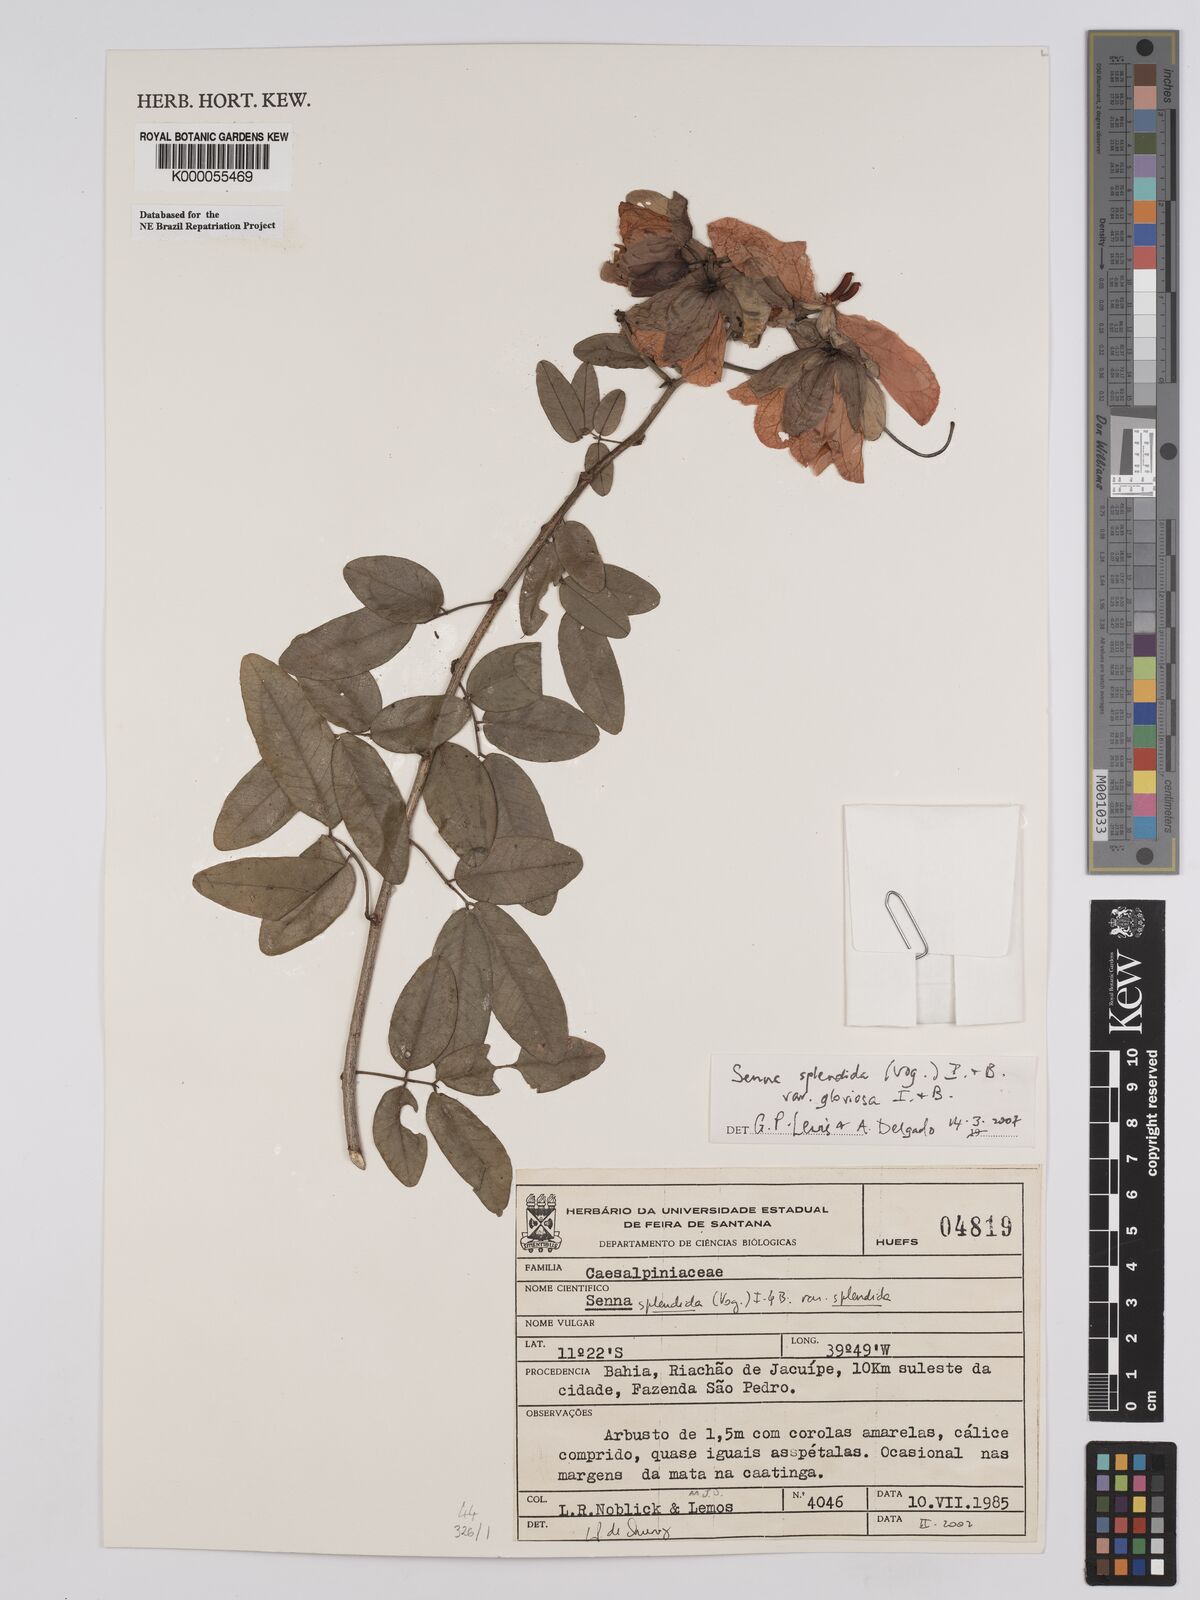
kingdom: Plantae
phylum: Tracheophyta
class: Magnoliopsida
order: Fabales
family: Fabaceae
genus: Senna
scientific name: Senna splendida
